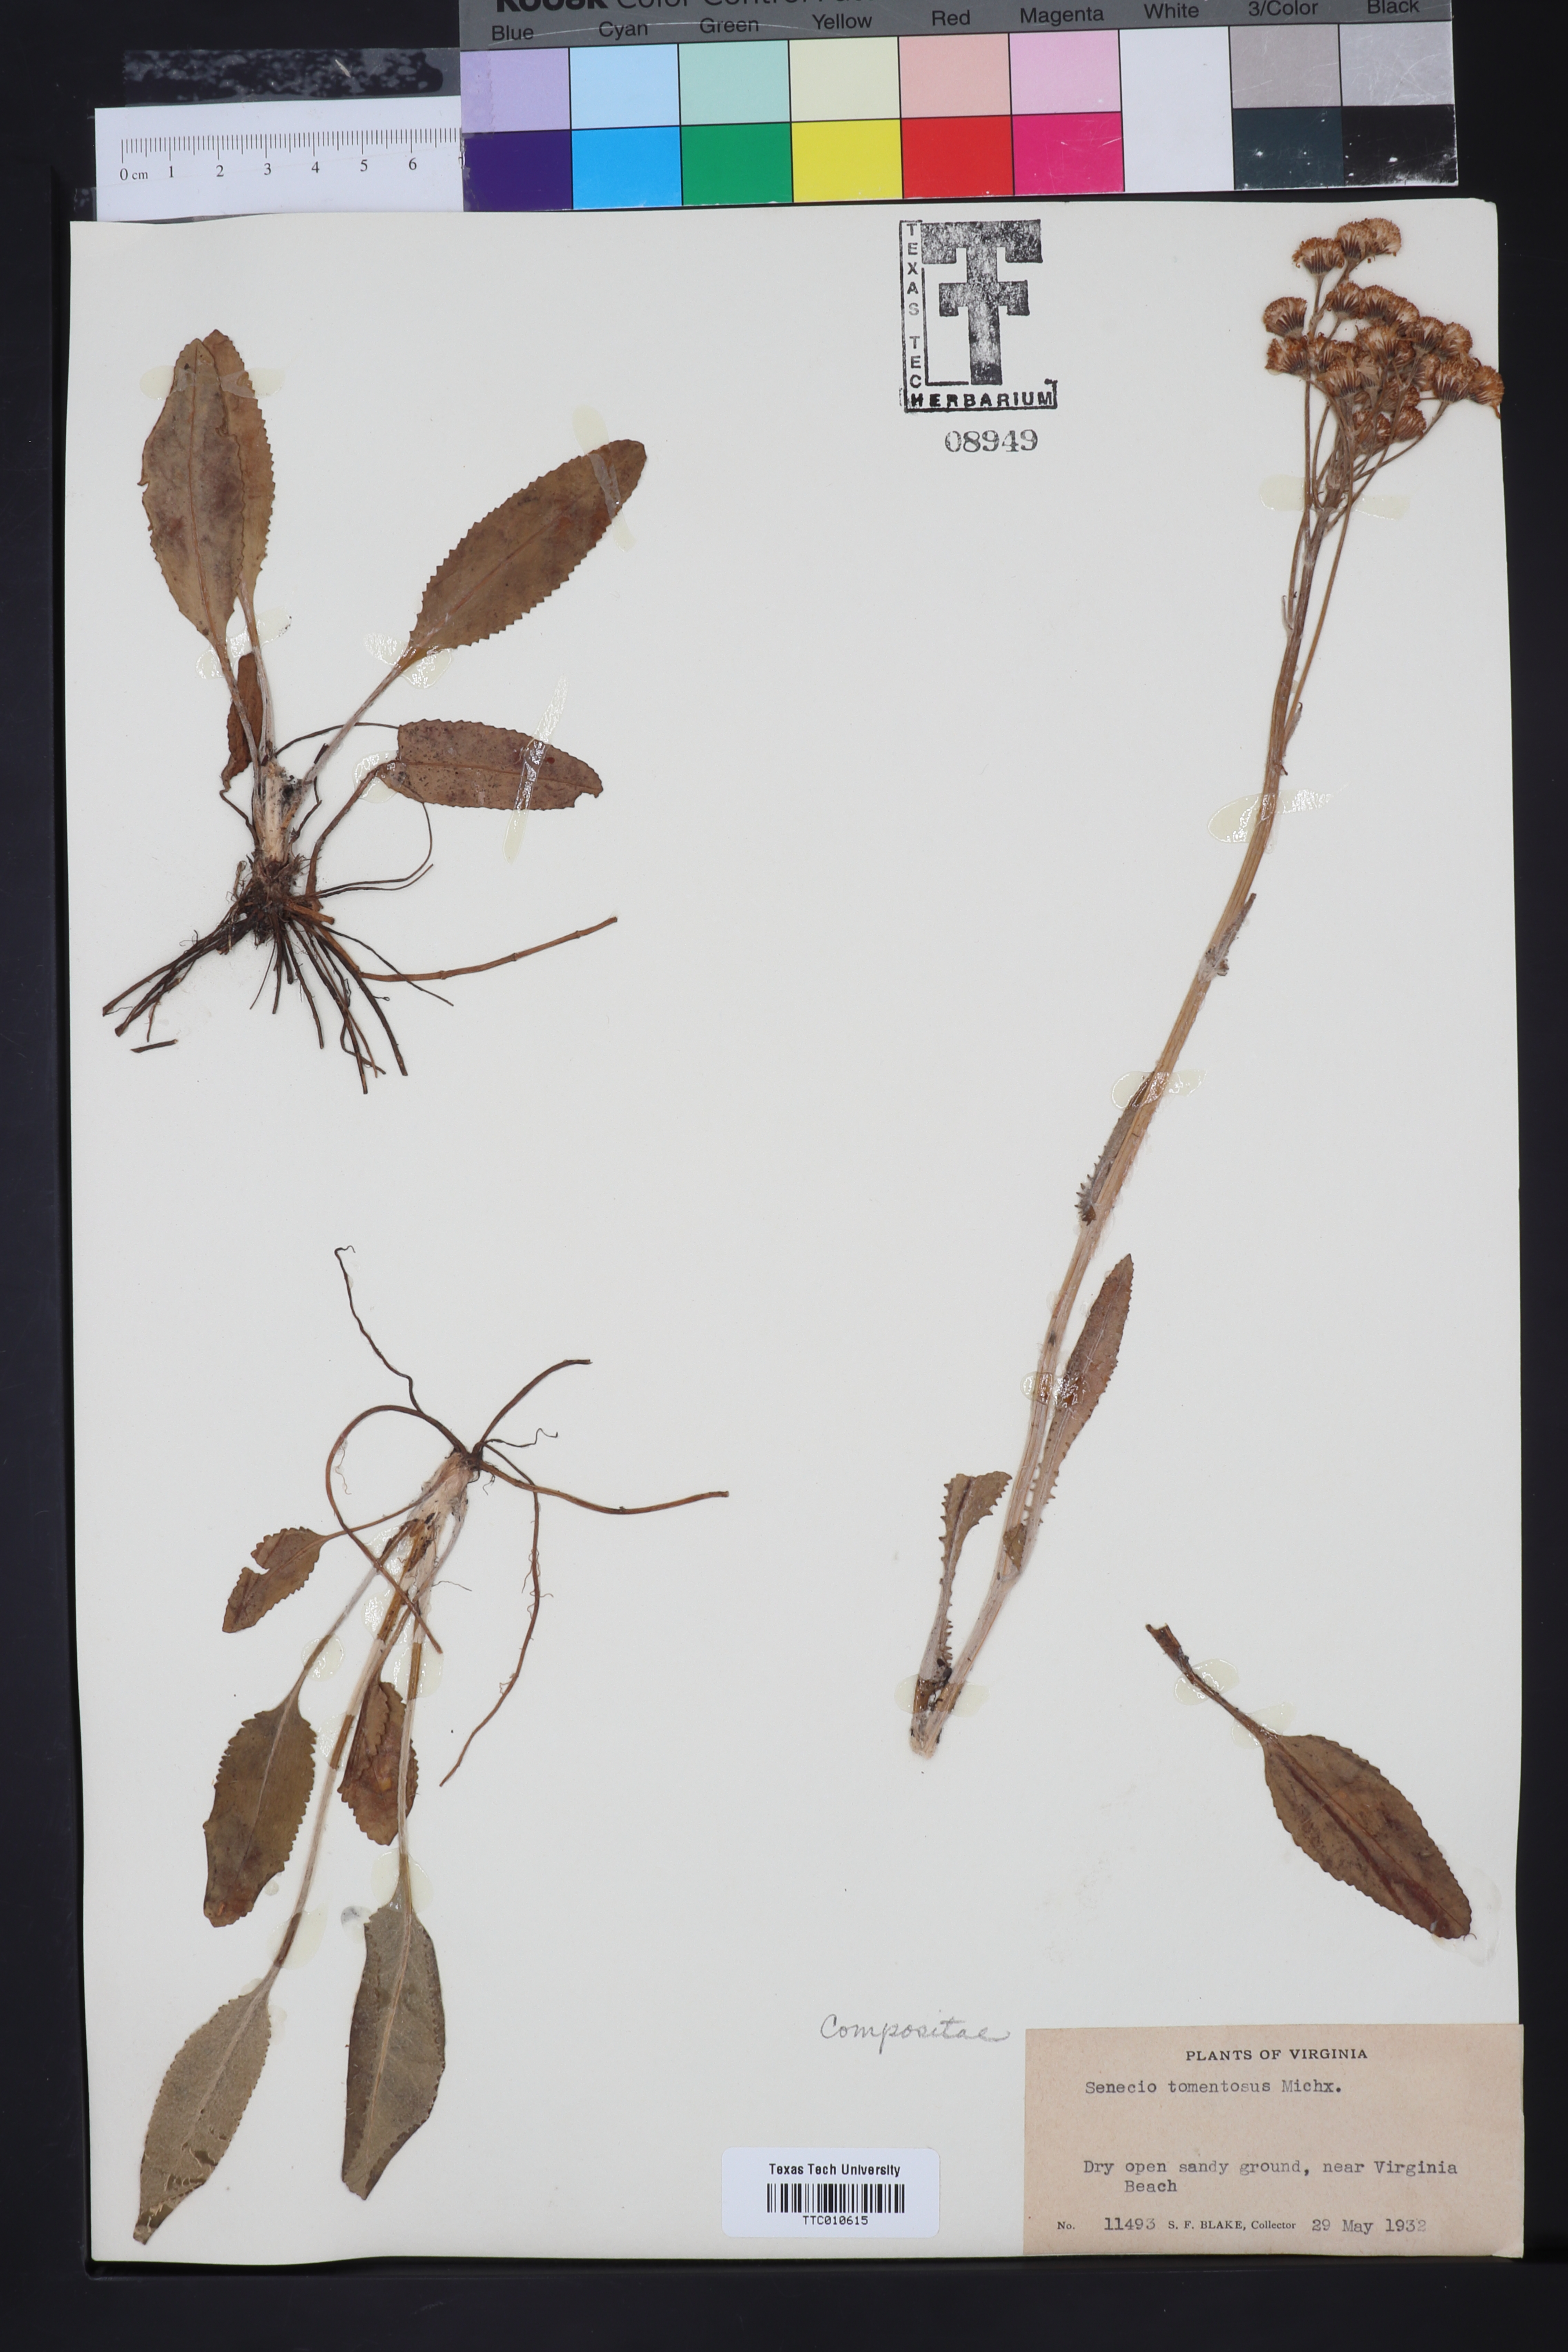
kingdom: Plantae
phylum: Tracheophyta
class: Magnoliopsida
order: Asterales
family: Asteraceae
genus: Senecio
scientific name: Senecio cinerascens
